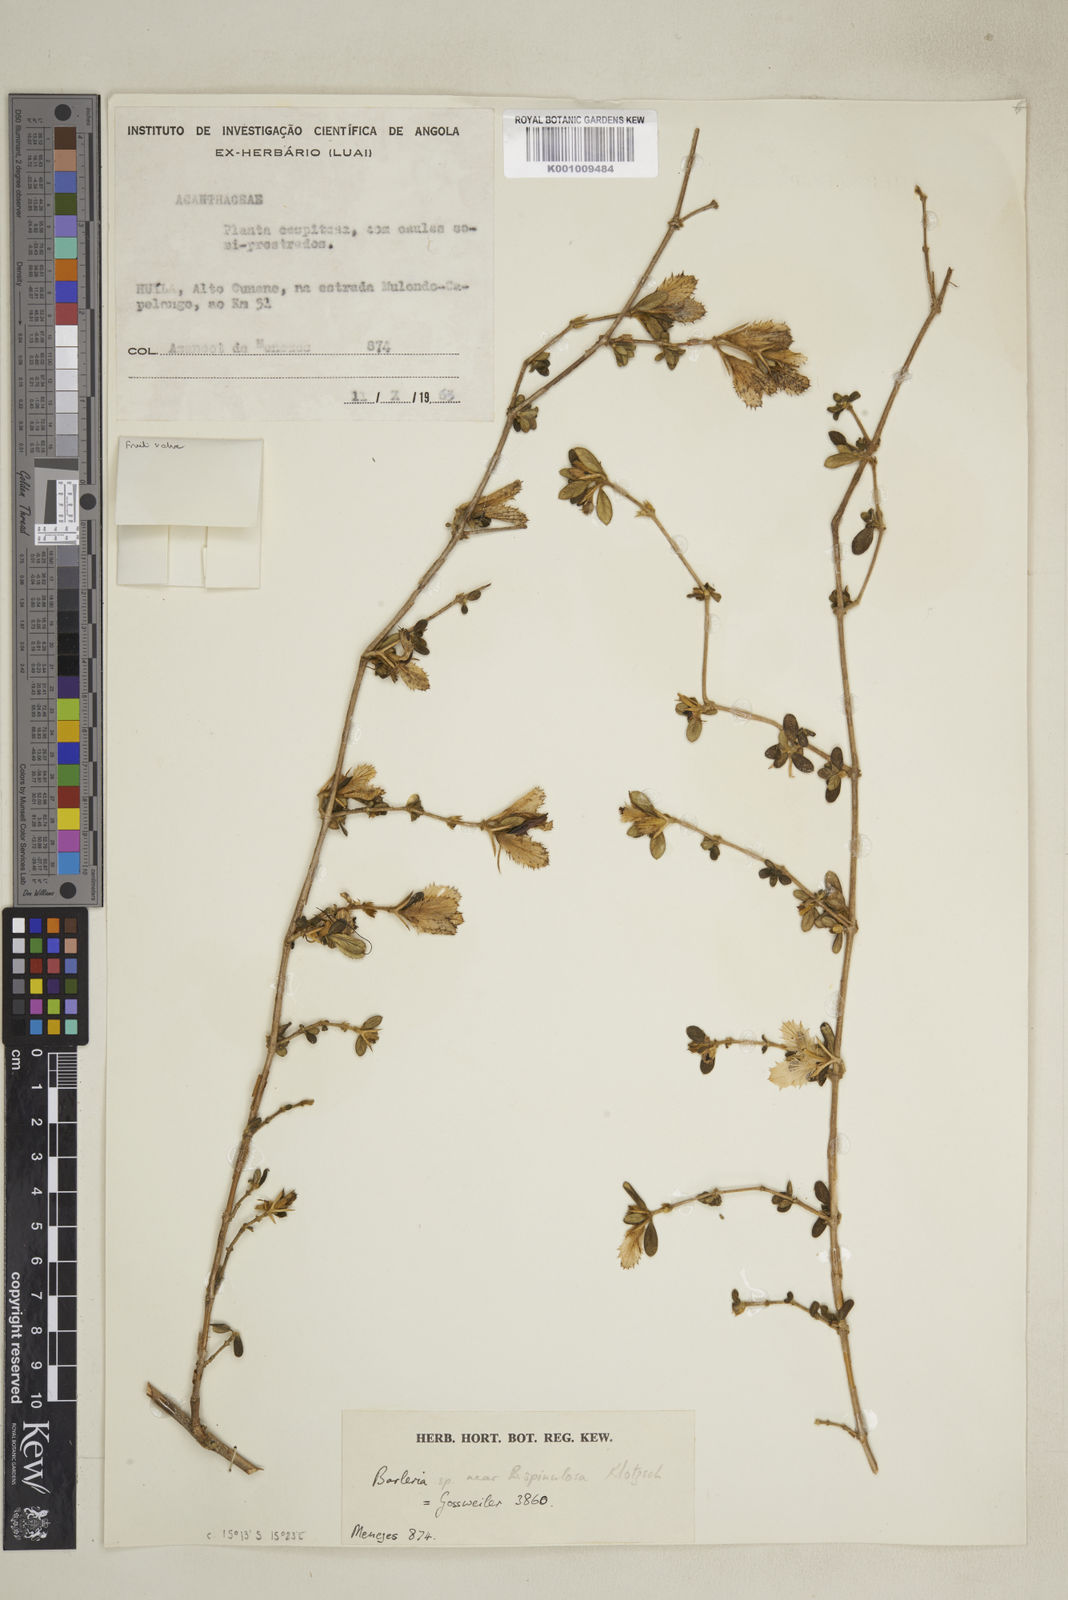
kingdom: Plantae
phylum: Tracheophyta
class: Magnoliopsida
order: Lamiales
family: Acanthaceae
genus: Barleria
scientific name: Barleria
